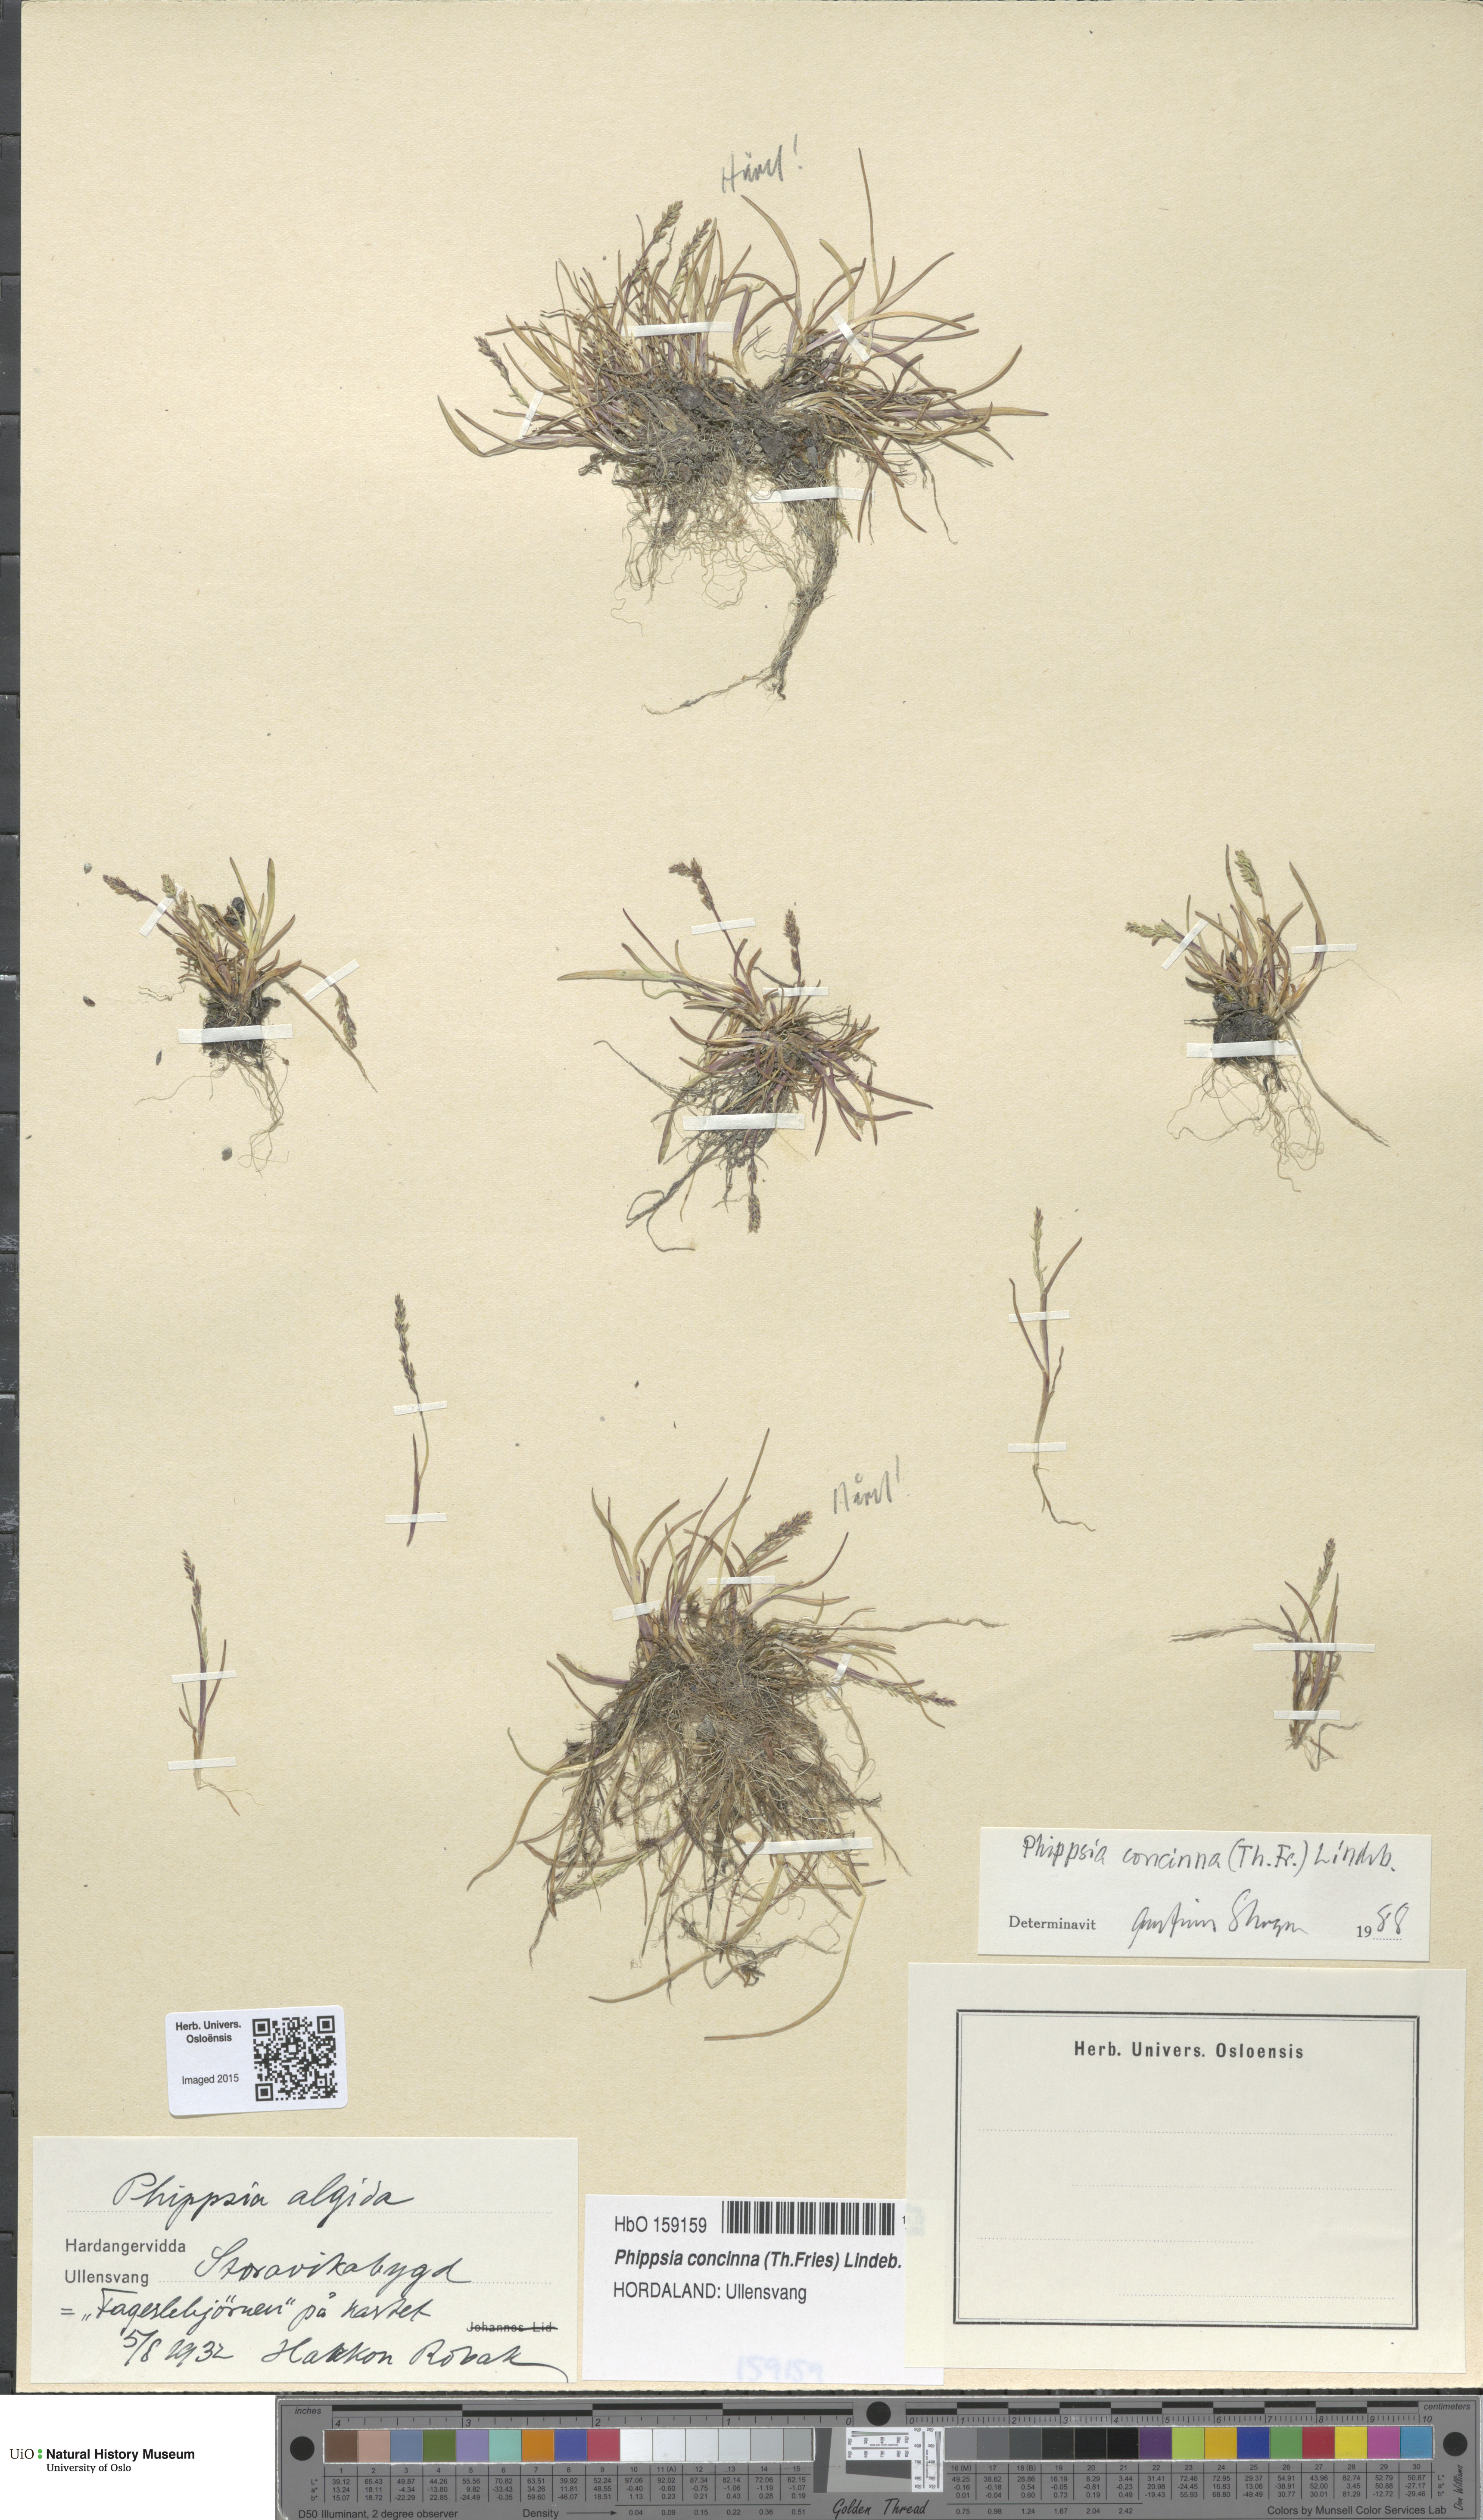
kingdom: Plantae
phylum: Tracheophyta
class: Liliopsida
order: Poales
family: Poaceae
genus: Phippsia
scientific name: Phippsia concinna
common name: Snowgrass
